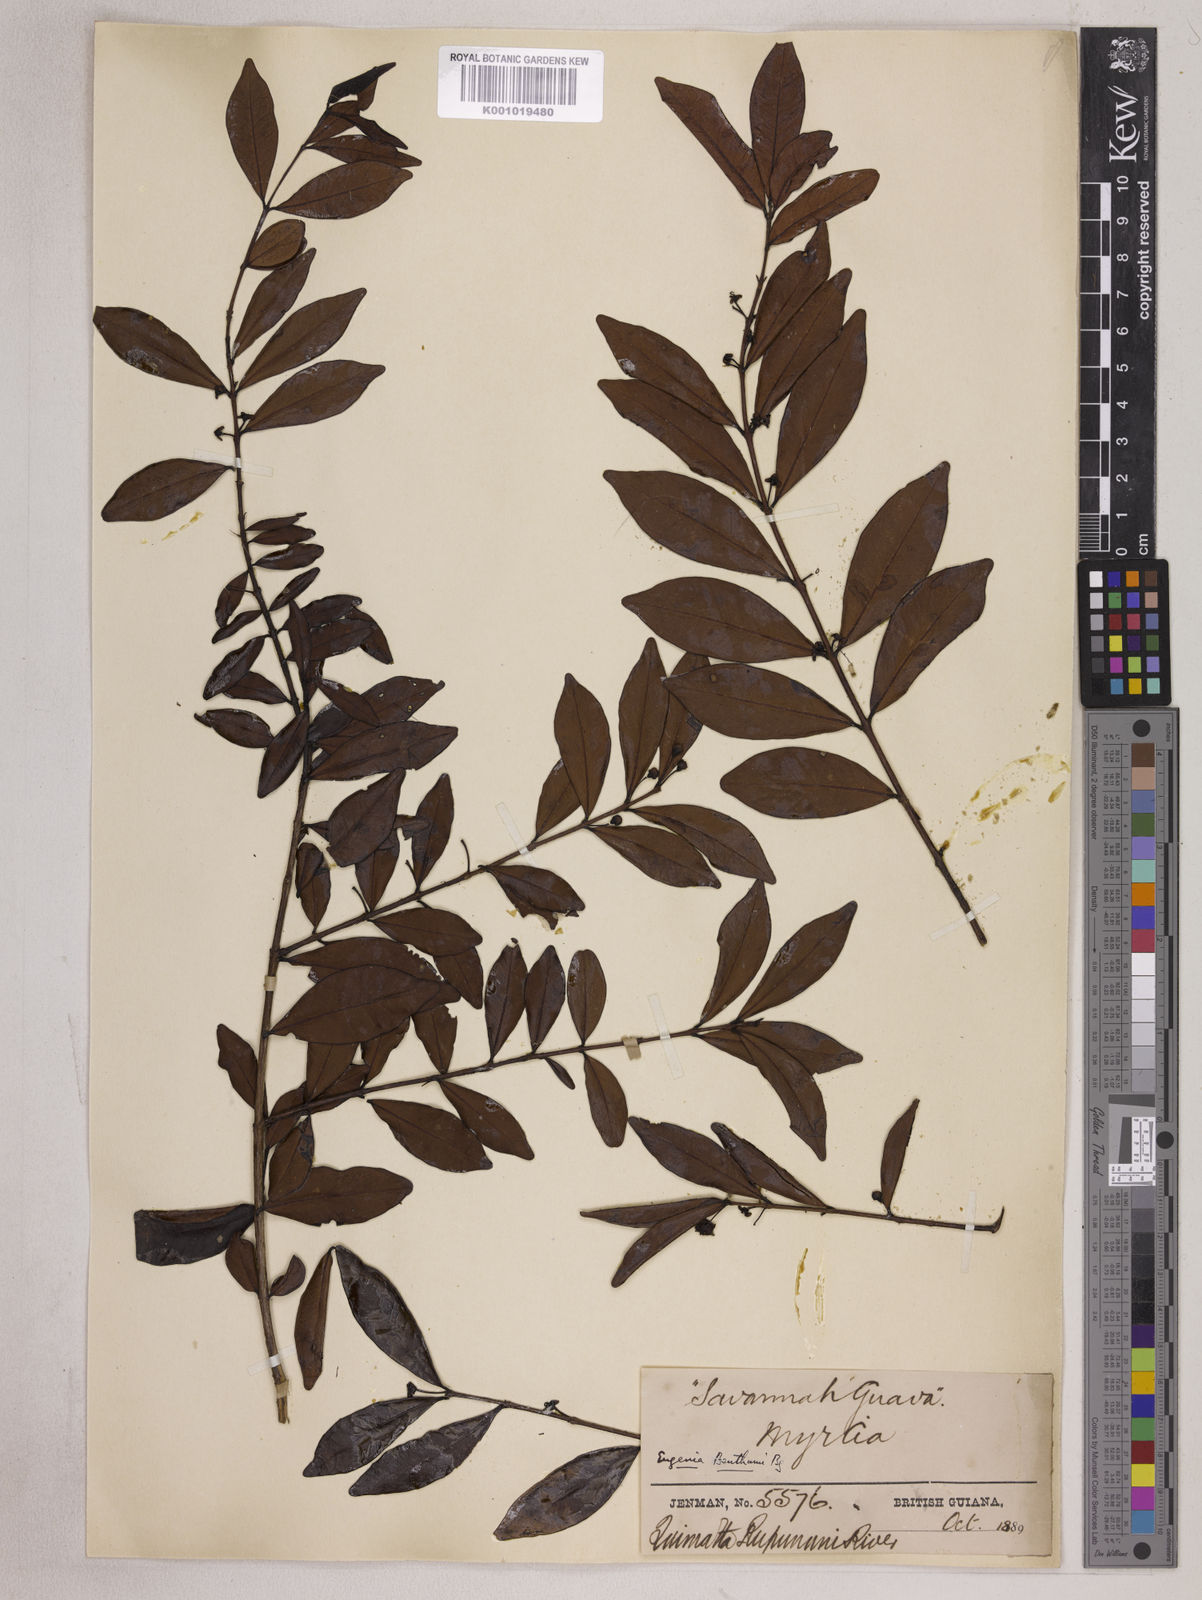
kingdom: Plantae
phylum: Tracheophyta
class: Magnoliopsida
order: Myrtales
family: Myrtaceae
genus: Eugenia
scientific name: Eugenia punicifolia
